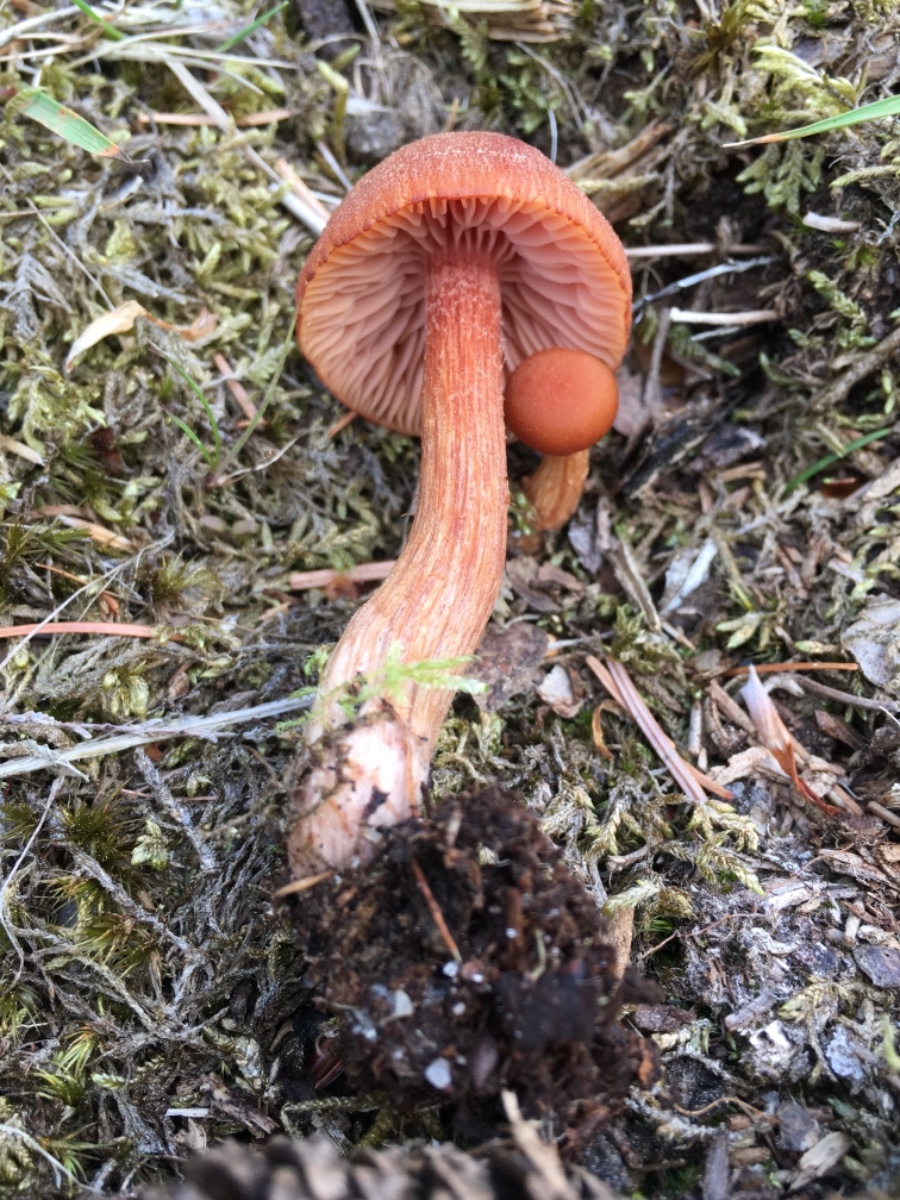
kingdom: Fungi
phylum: Basidiomycota
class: Agaricomycetes
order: Agaricales
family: Hydnangiaceae
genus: Laccaria
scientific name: Laccaria proxima
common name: stor ametysthat
